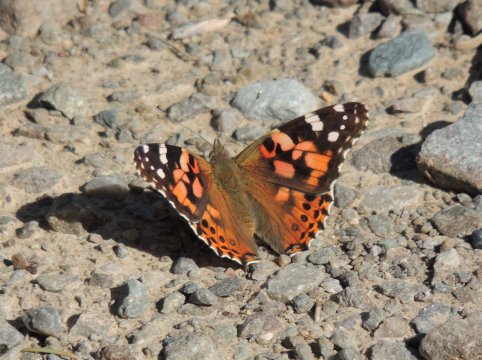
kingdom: Animalia
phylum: Arthropoda
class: Insecta
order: Lepidoptera
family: Nymphalidae
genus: Vanessa
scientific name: Vanessa cardui
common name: Painted Lady
